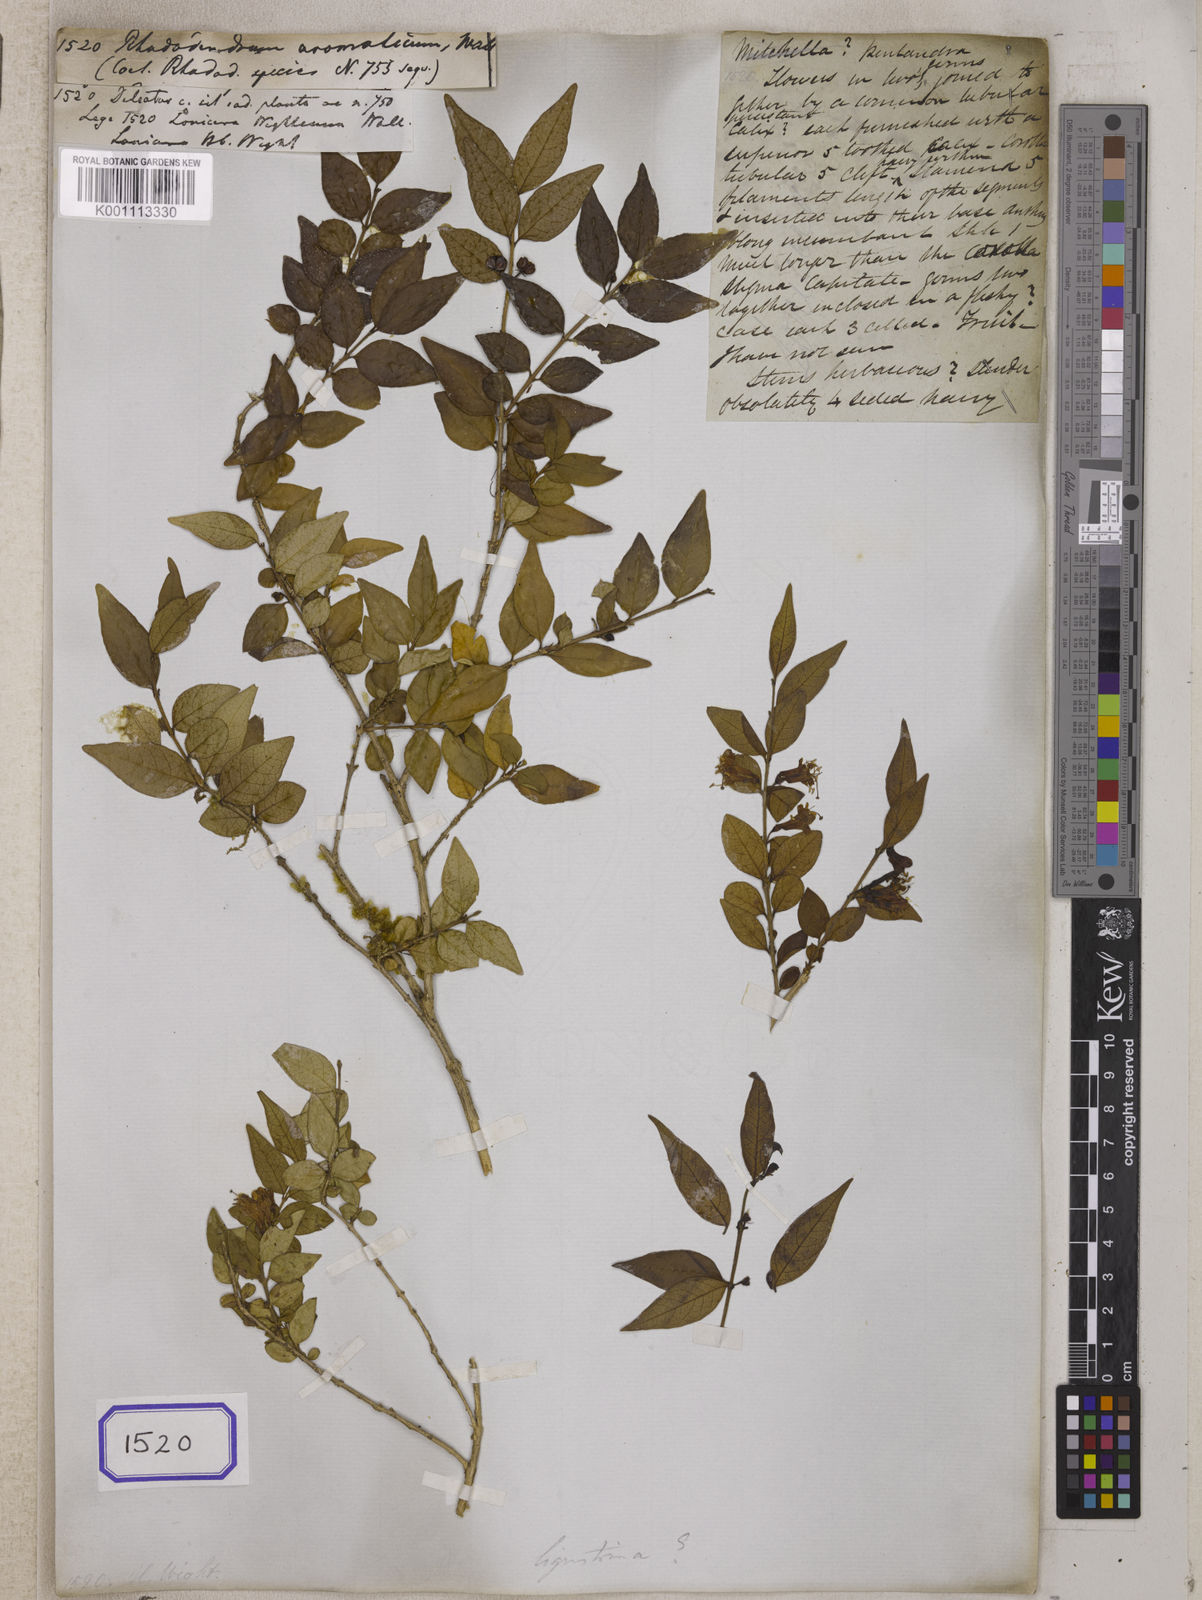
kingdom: Plantae
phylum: Tracheophyta
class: Magnoliopsida
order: Dipsacales
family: Caprifoliaceae
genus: Lonicera
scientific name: Lonicera ligustrina
